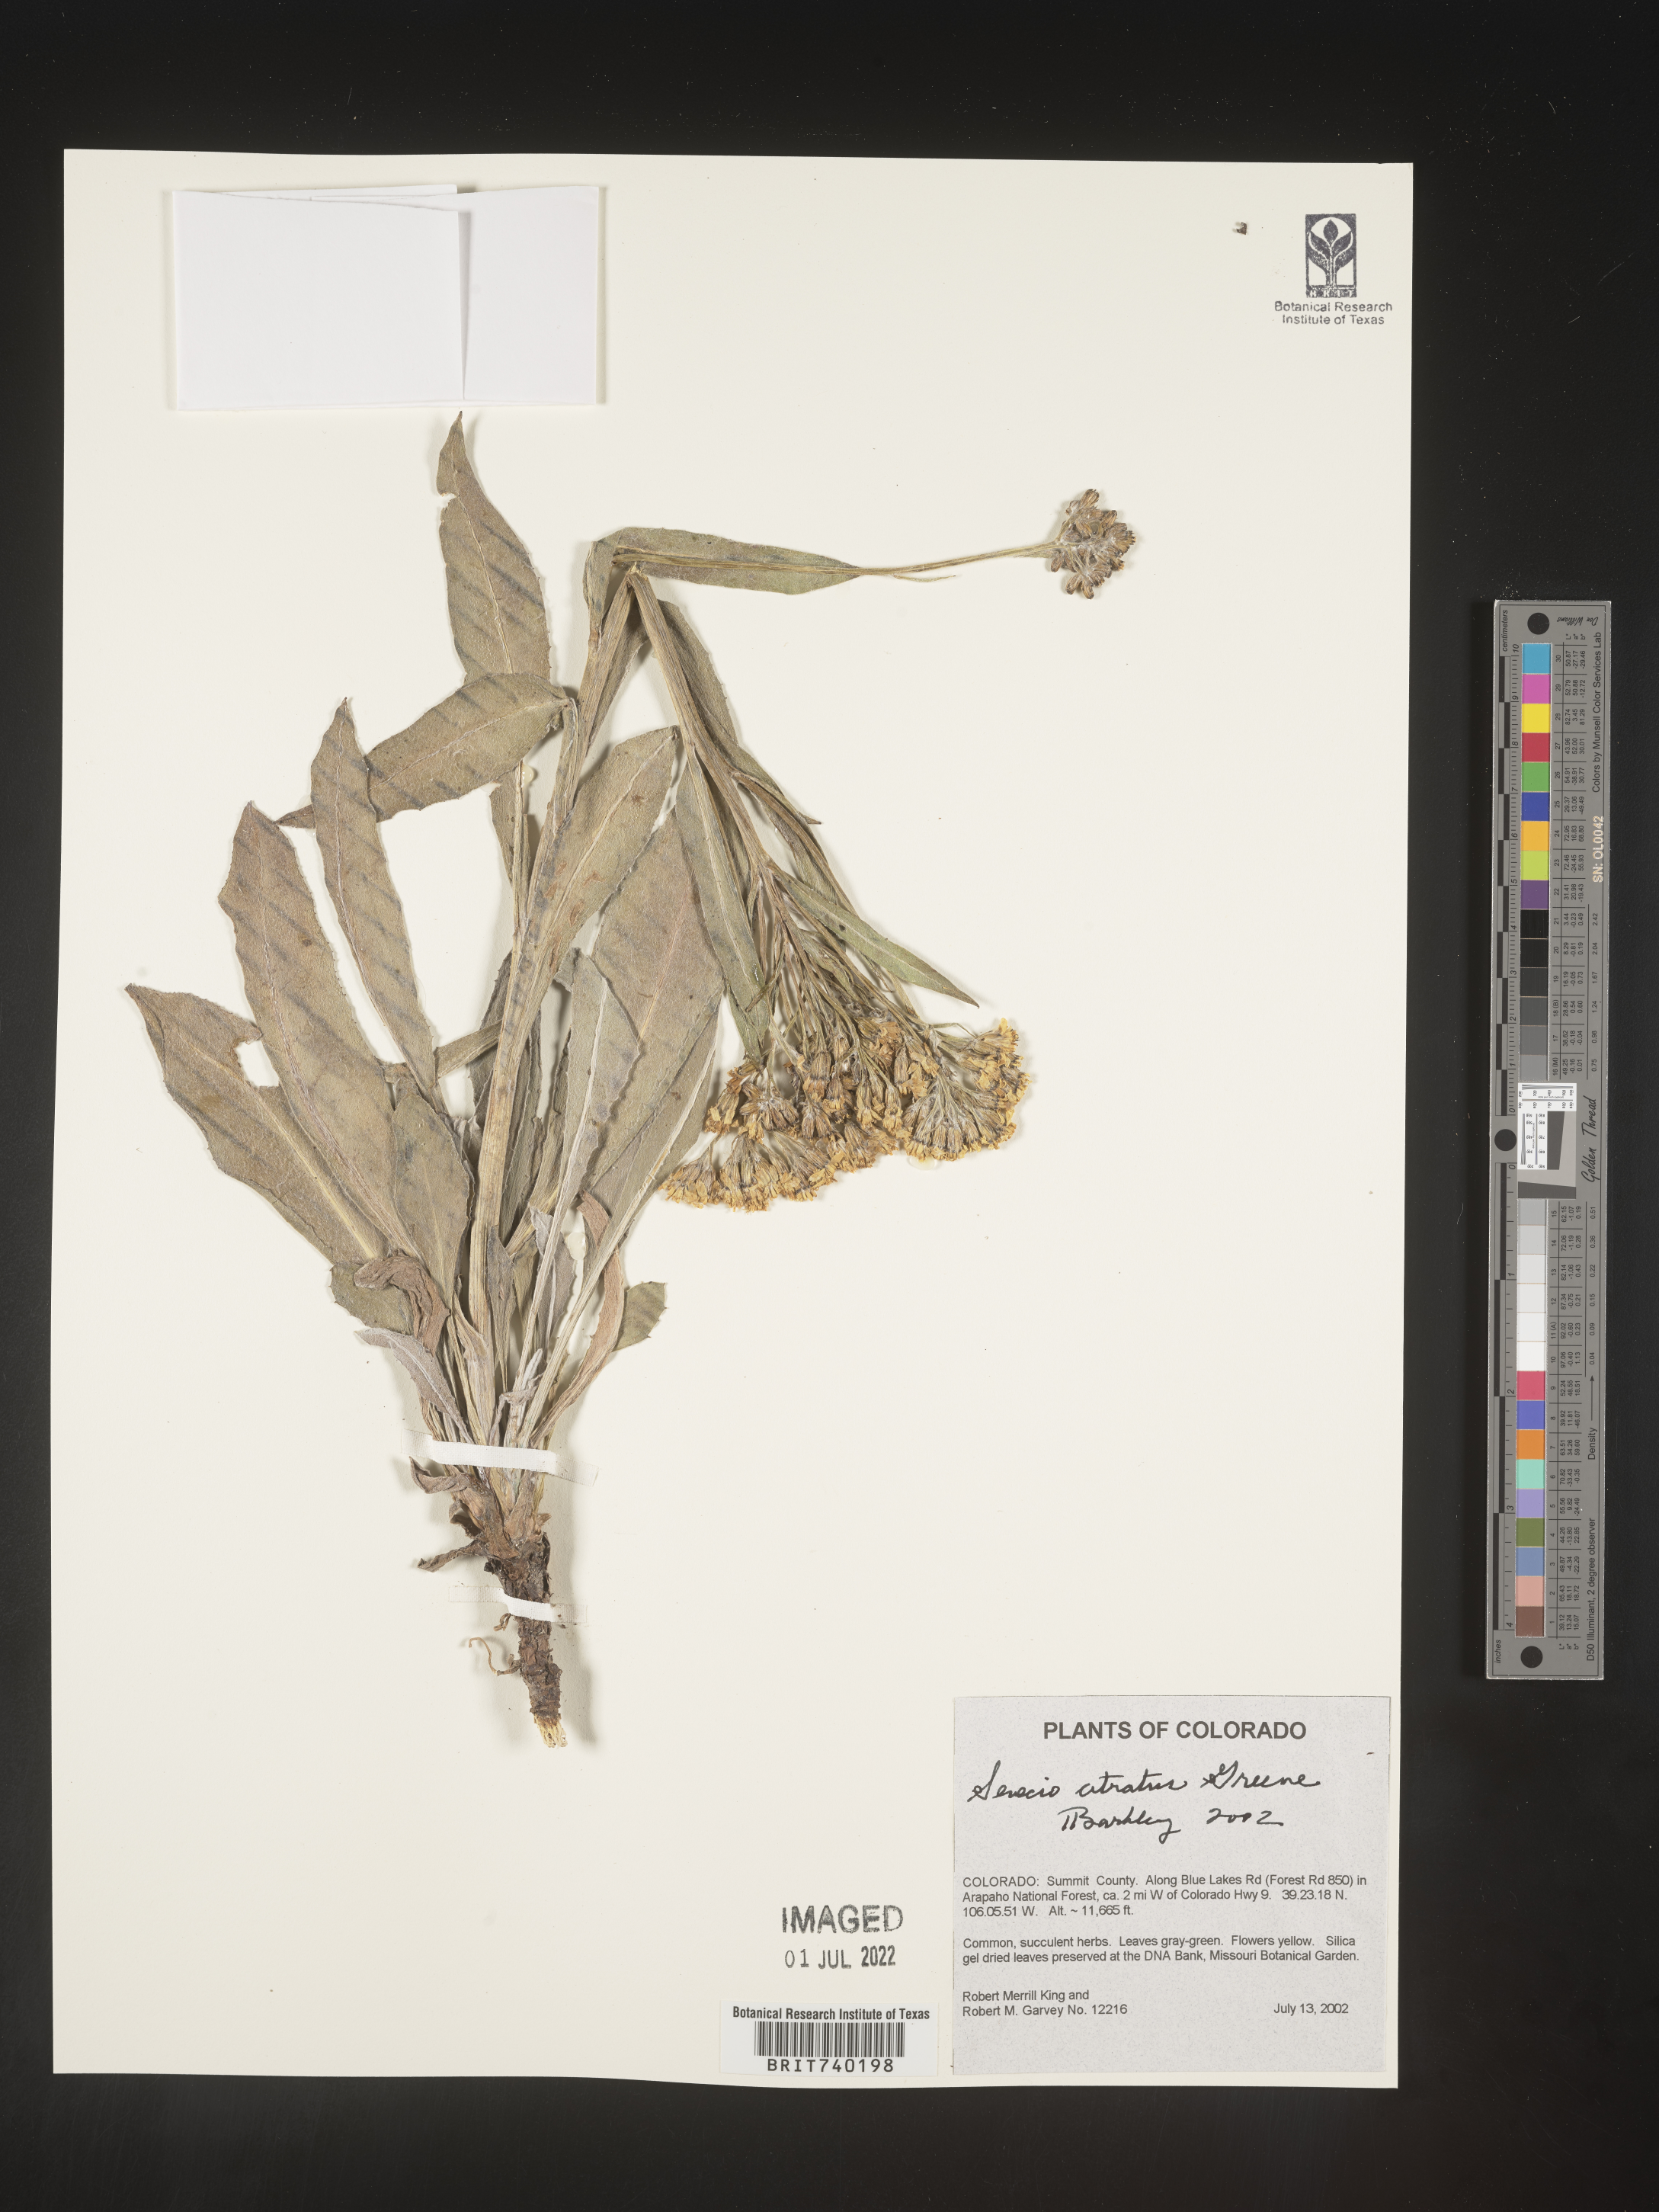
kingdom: Plantae
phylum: Tracheophyta
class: Magnoliopsida
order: Asterales
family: Asteraceae
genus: Senecio
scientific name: Senecio atratus
